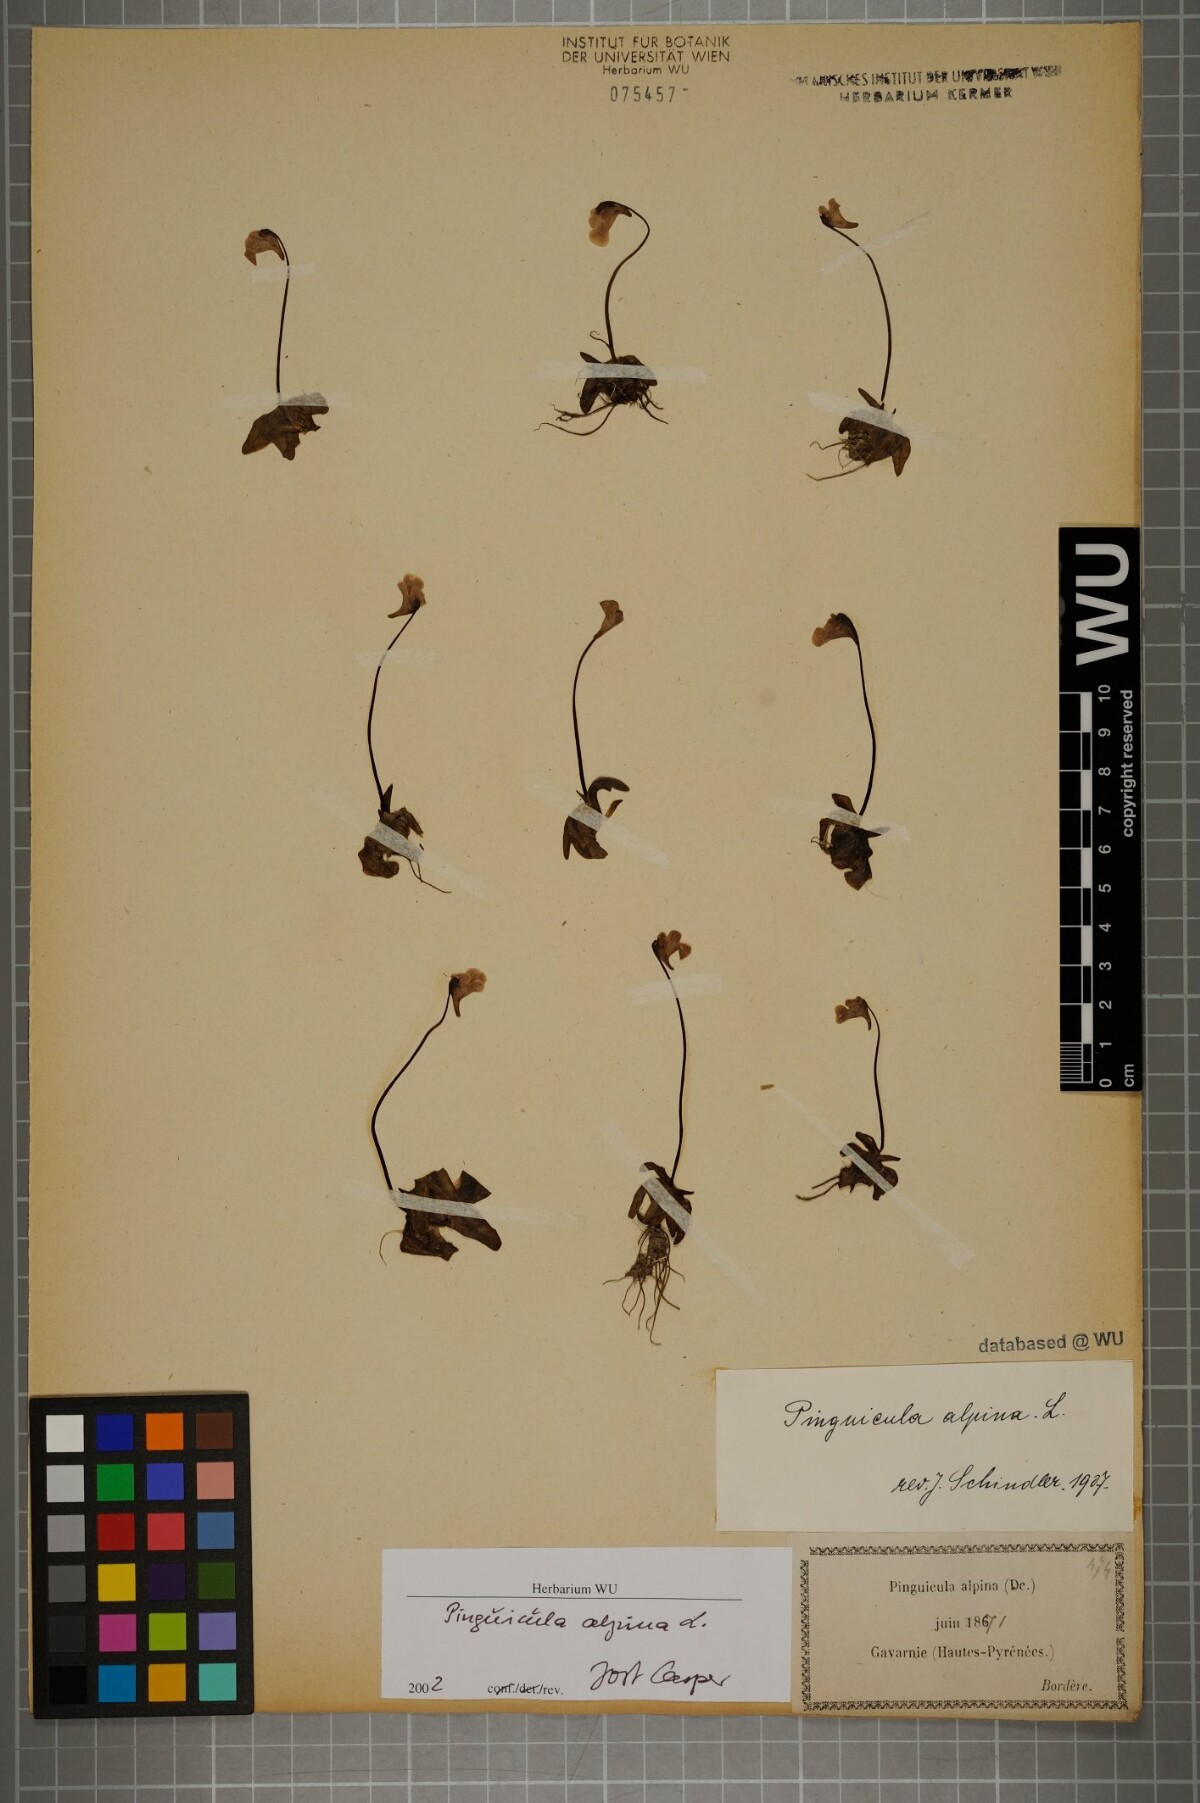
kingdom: Plantae
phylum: Tracheophyta
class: Magnoliopsida
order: Lamiales
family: Lentibulariaceae
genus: Pinguicula
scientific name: Pinguicula alpina
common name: Alpine butterwort
